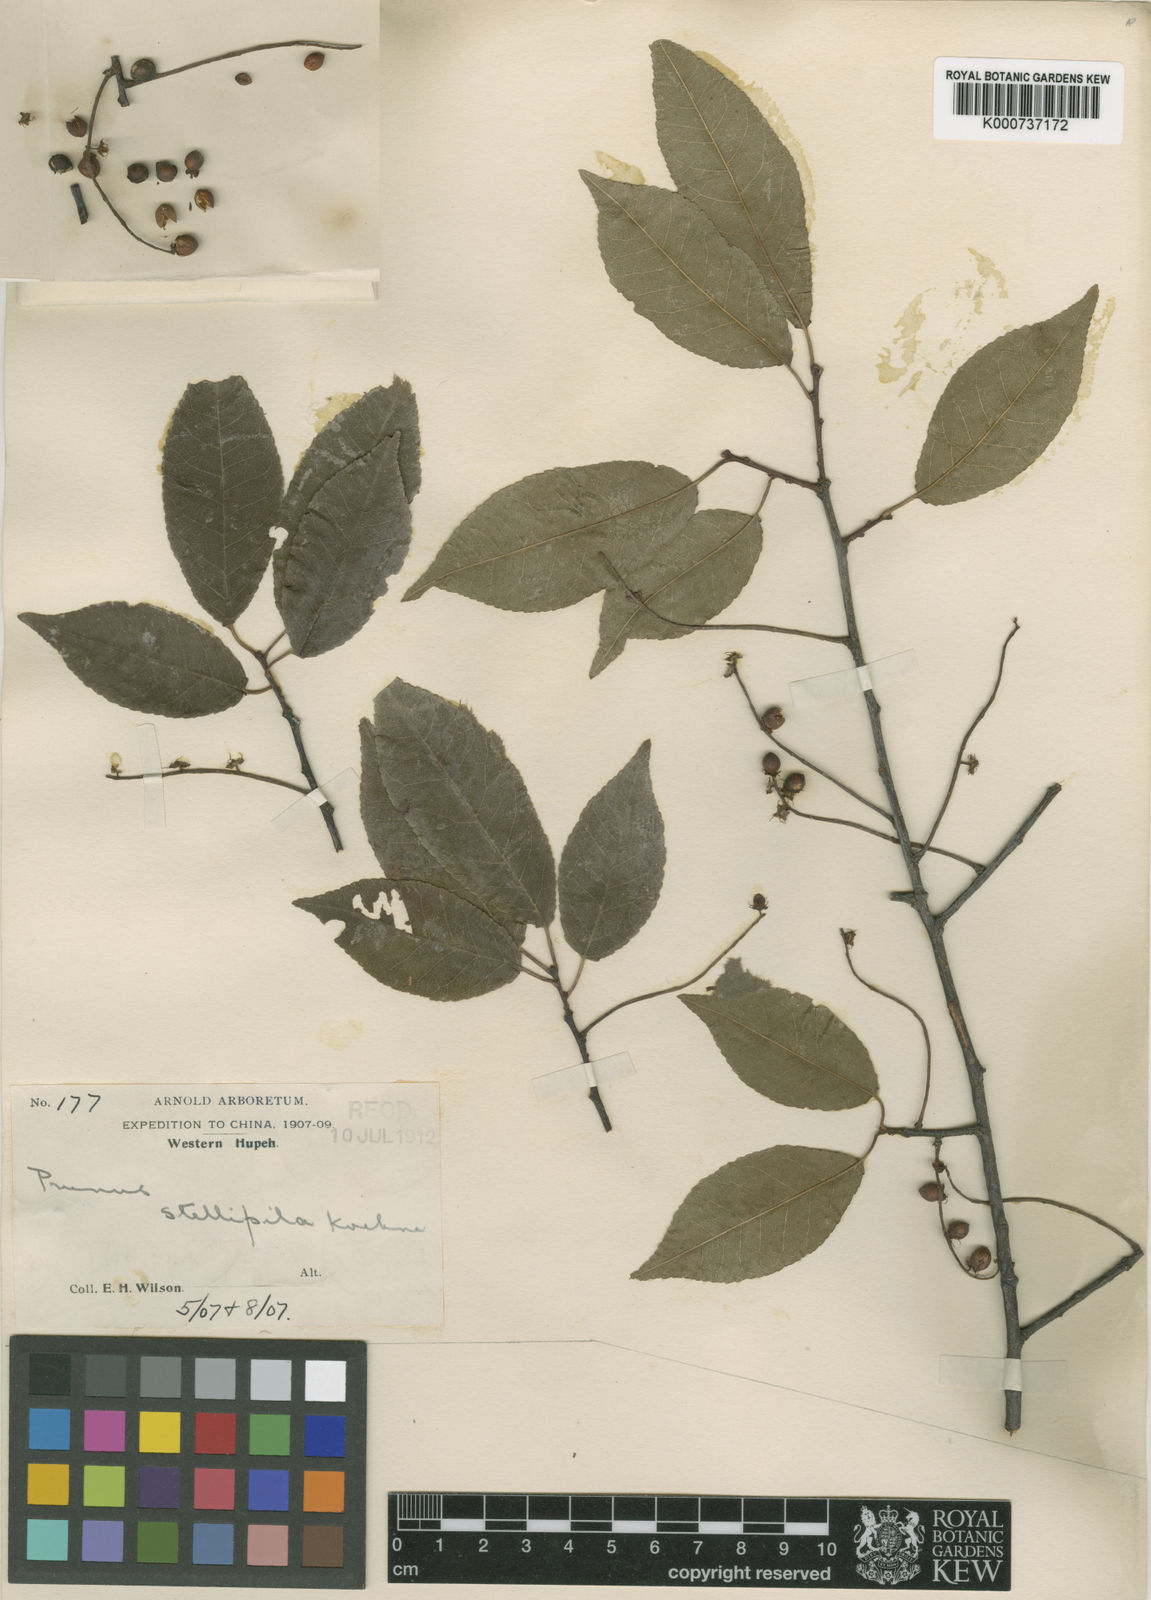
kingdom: Plantae
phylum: Tracheophyta
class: Magnoliopsida
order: Rosales
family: Rosaceae
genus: Prunus
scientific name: Prunus stellipila
